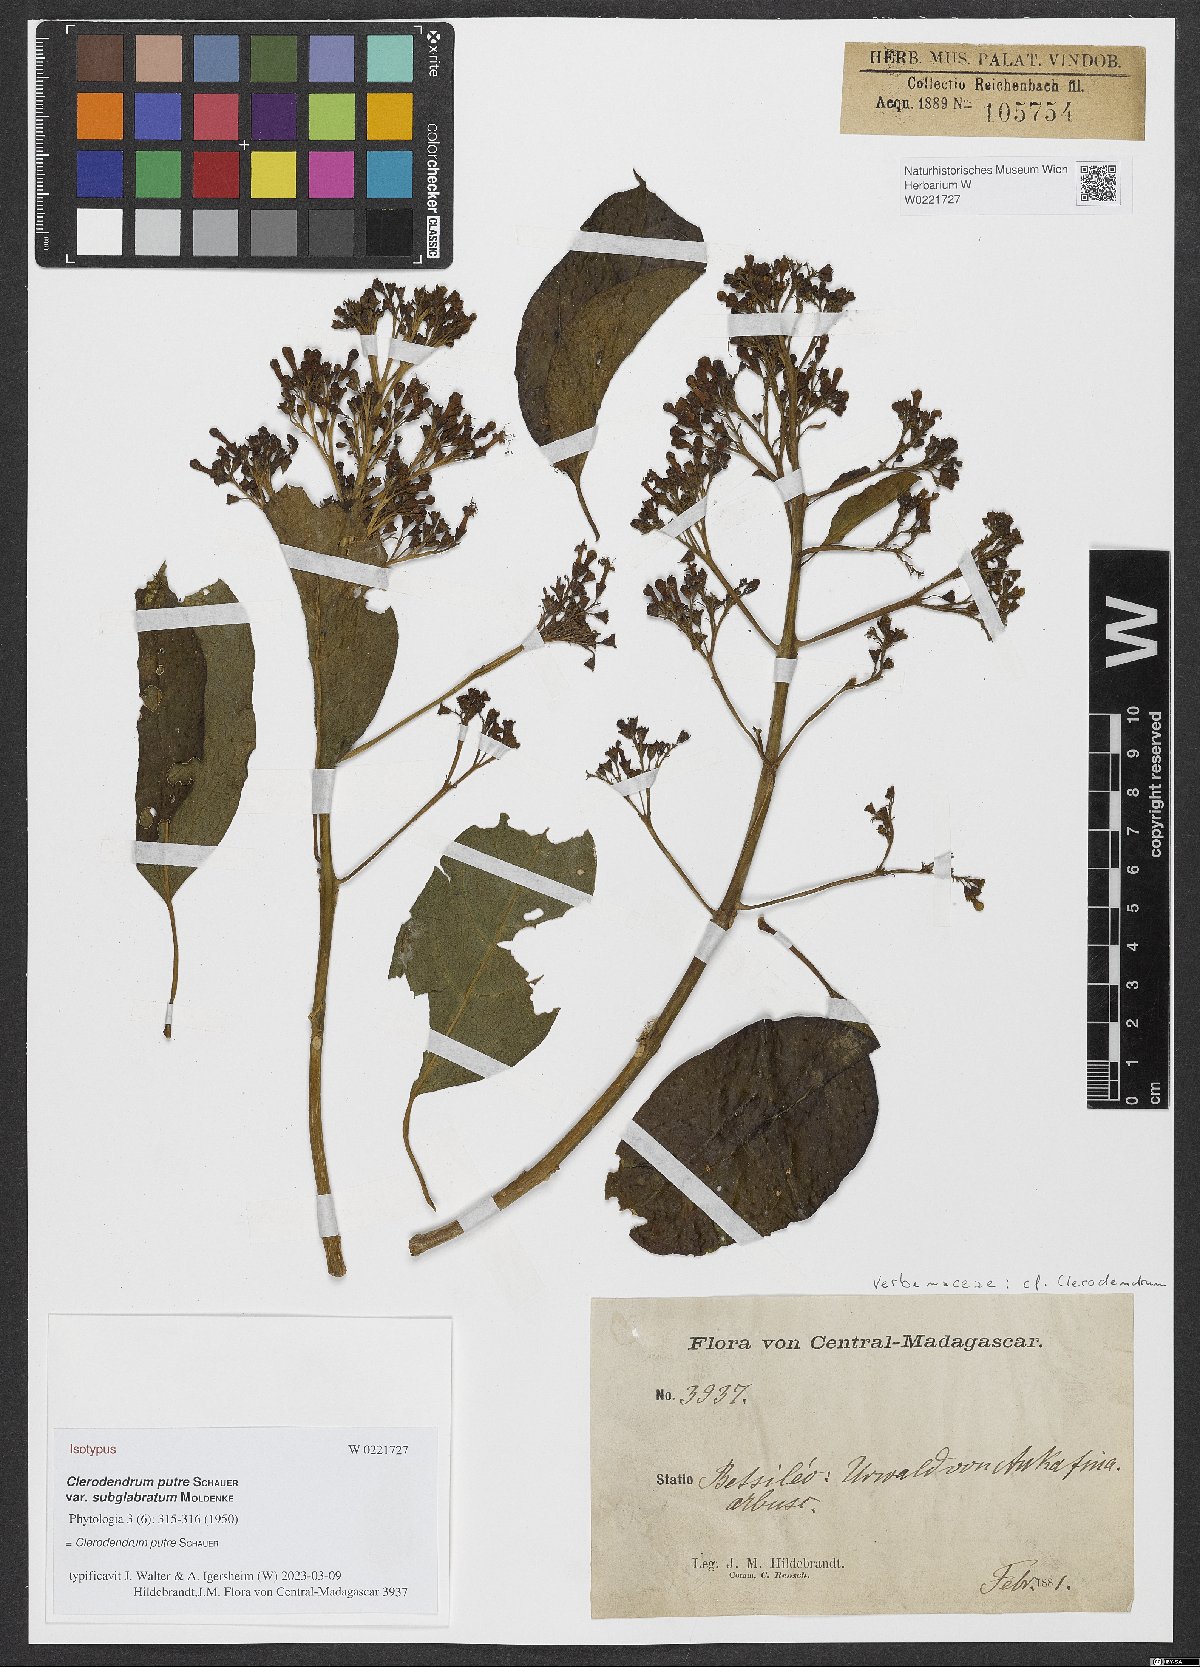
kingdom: Plantae
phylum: Tracheophyta
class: Magnoliopsida
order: Lamiales
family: Lamiaceae
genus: Clerodendrum
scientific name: Clerodendrum putre
